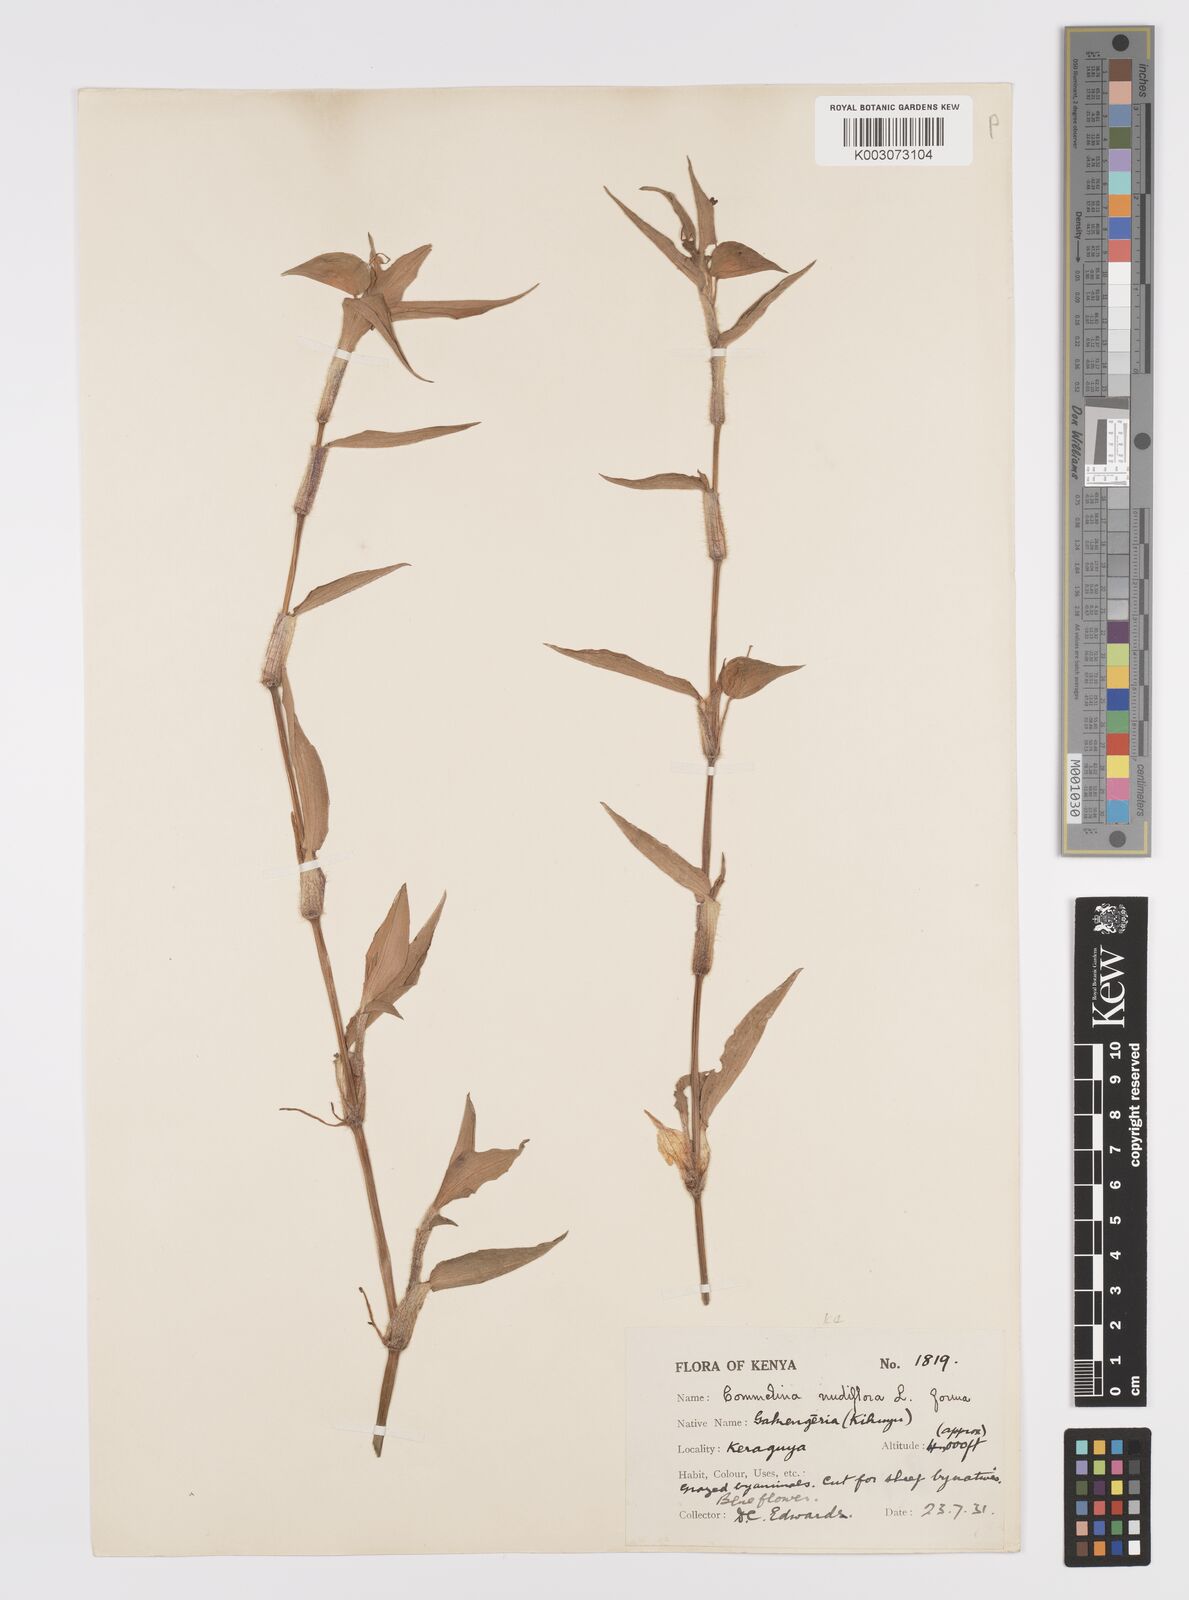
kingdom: Plantae
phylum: Tracheophyta
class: Liliopsida
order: Commelinales
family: Commelinaceae
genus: Commelina
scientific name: Commelina diffusa
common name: Climbing dayflower
